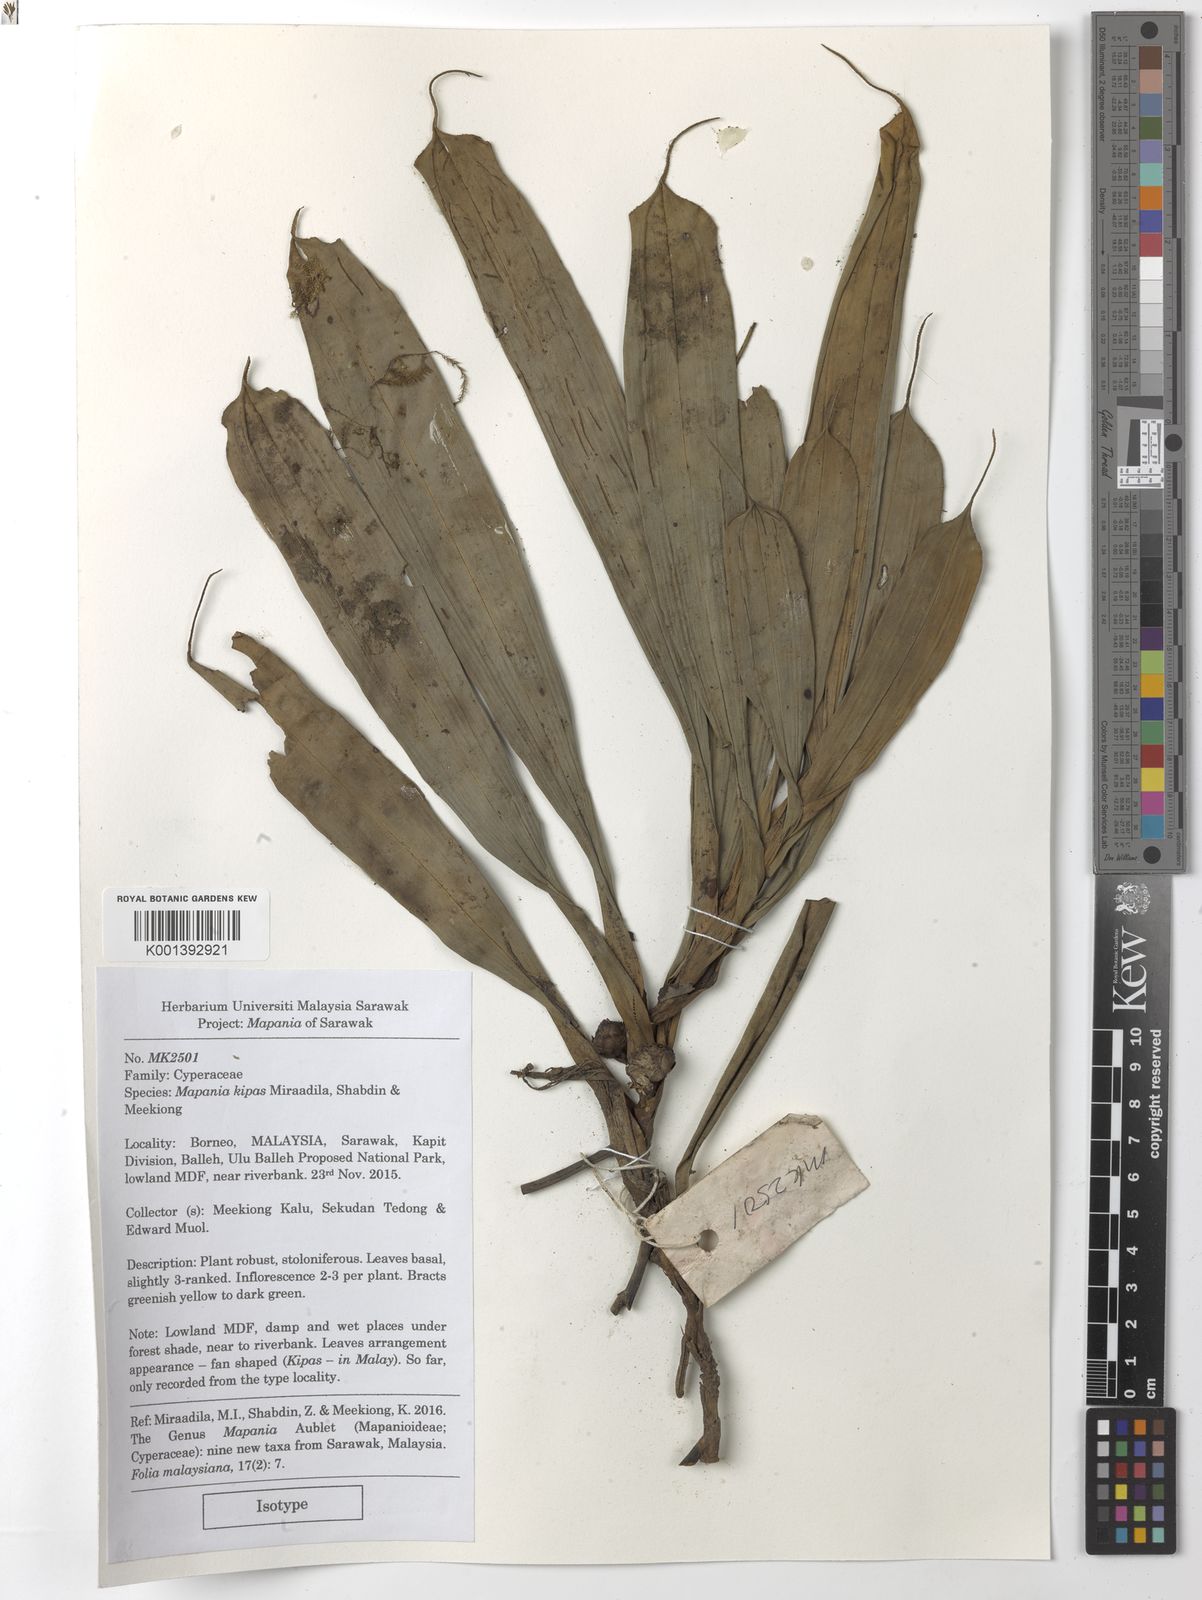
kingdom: Plantae
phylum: Tracheophyta
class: Liliopsida
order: Poales
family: Cyperaceae
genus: Mapania
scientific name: Mapania kipas
